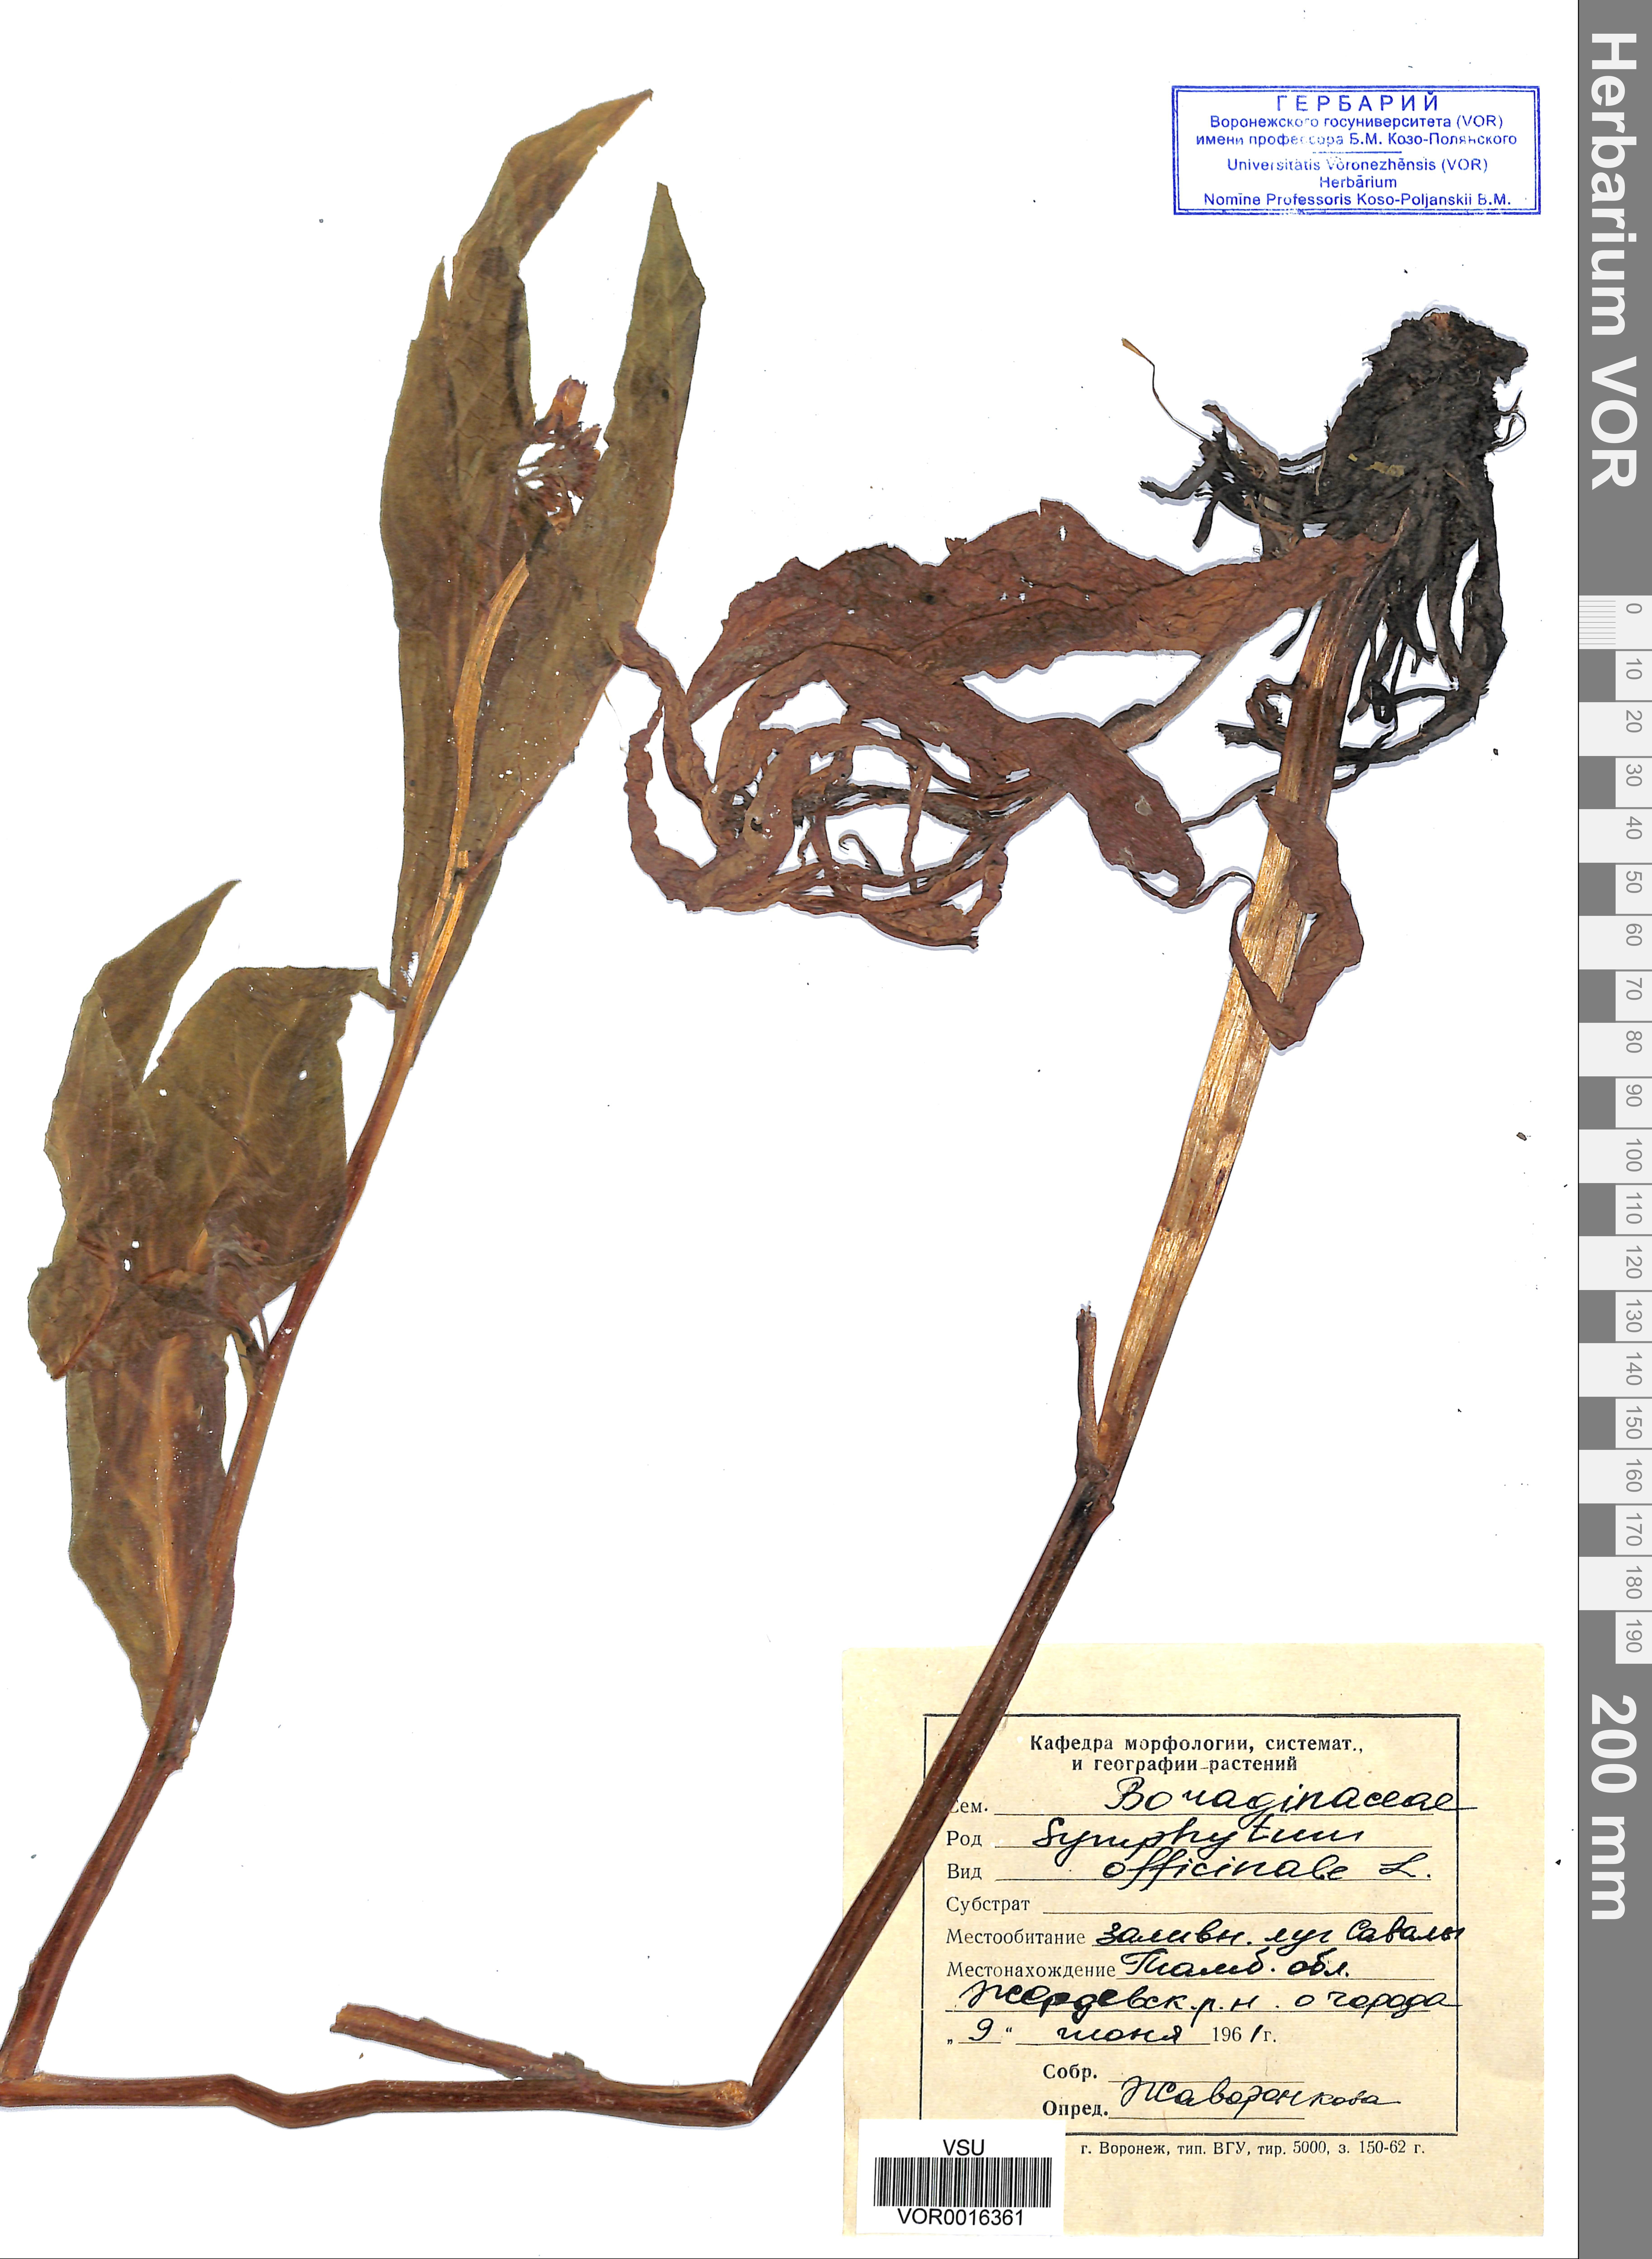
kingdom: Plantae
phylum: Tracheophyta
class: Magnoliopsida
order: Boraginales
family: Boraginaceae
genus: Symphytum
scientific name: Symphytum officinale
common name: Common comfrey
